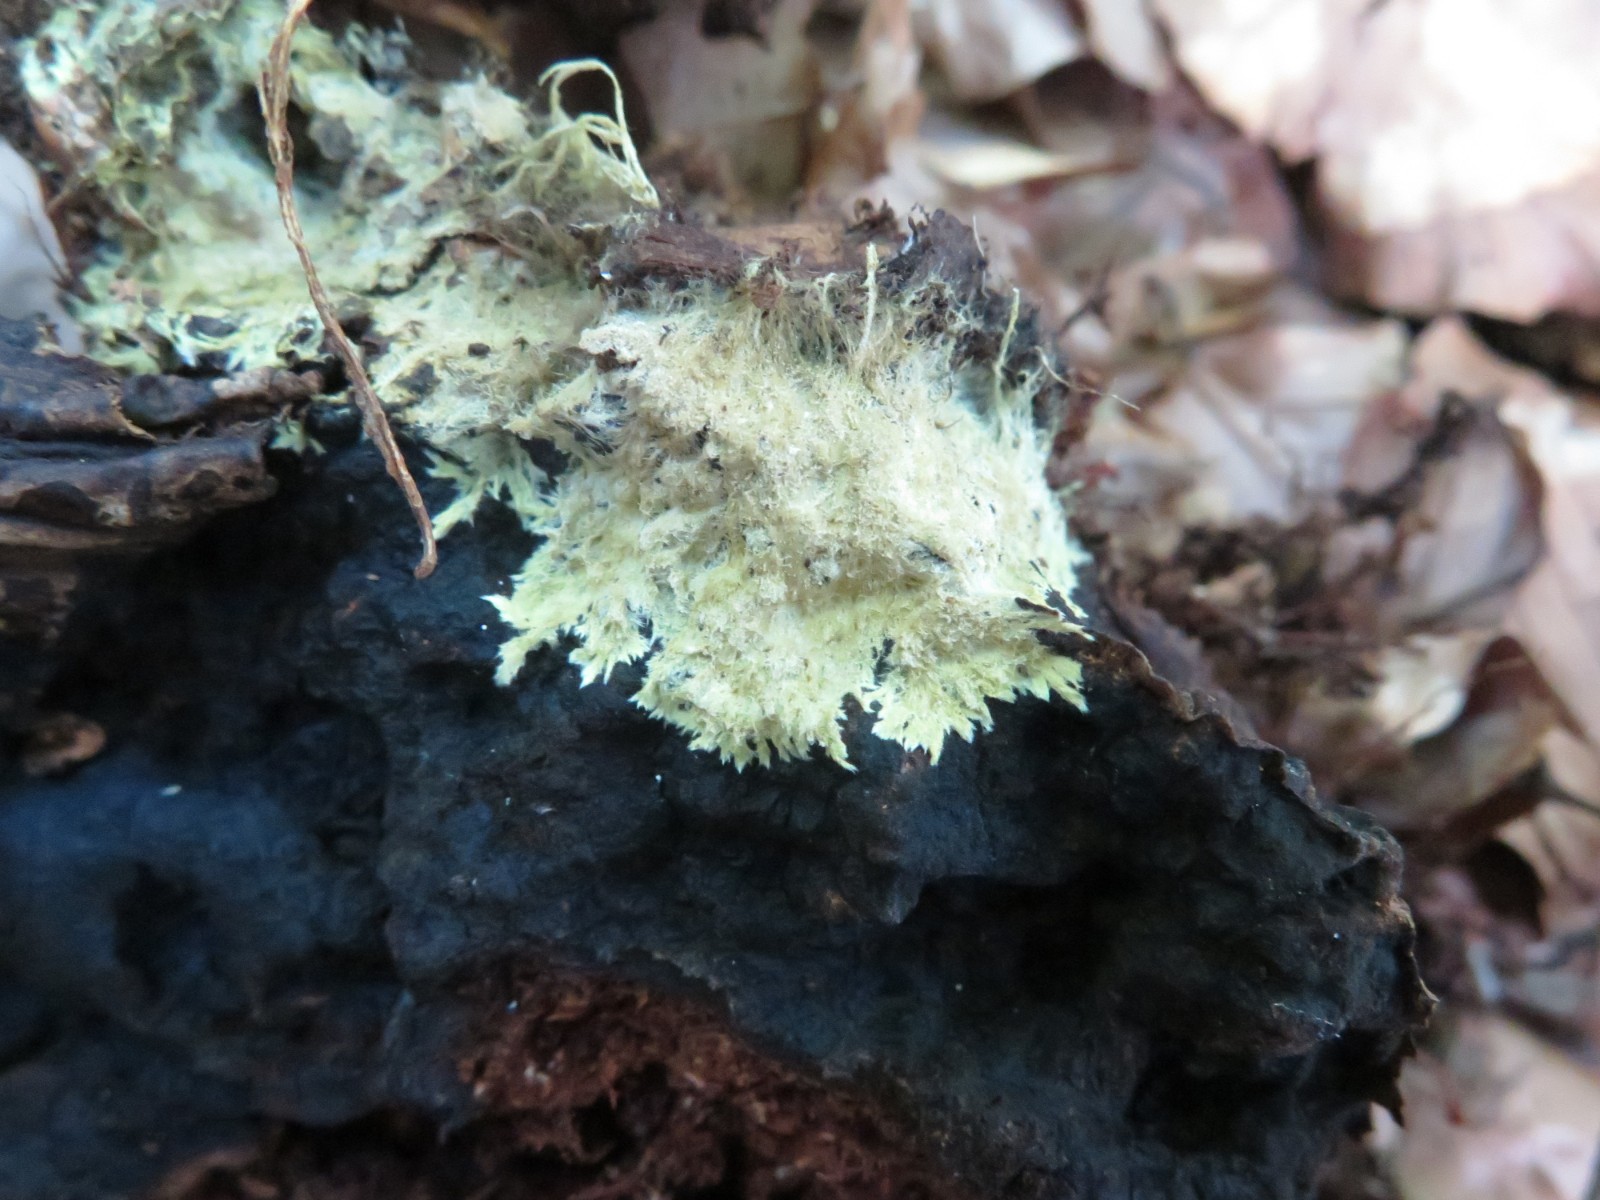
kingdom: Fungi
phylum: Basidiomycota
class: Agaricomycetes
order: Russulales
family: Xenasmataceae
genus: Xenasmatella
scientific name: Xenasmatella vaga
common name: svovl-strenghinde
